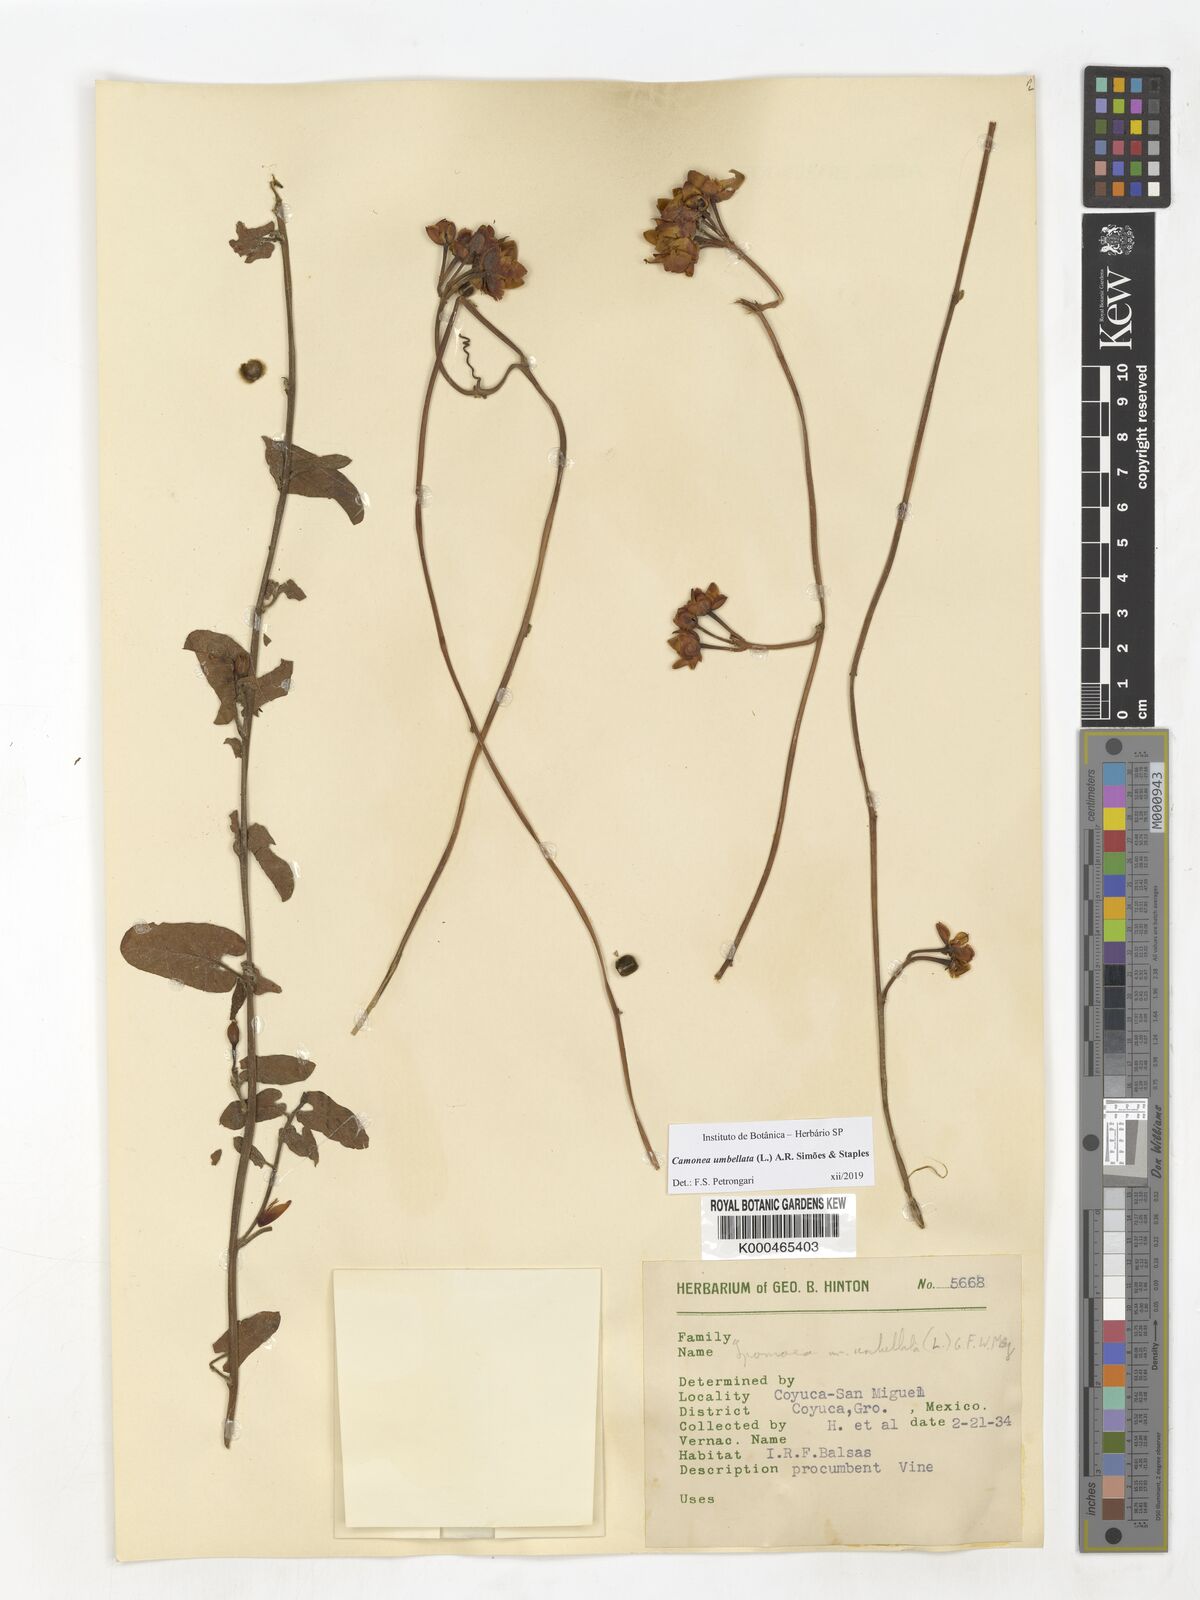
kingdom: Plantae
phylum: Tracheophyta
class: Magnoliopsida
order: Solanales
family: Convolvulaceae
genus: Camonea
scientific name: Camonea umbellata
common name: Hogvine
